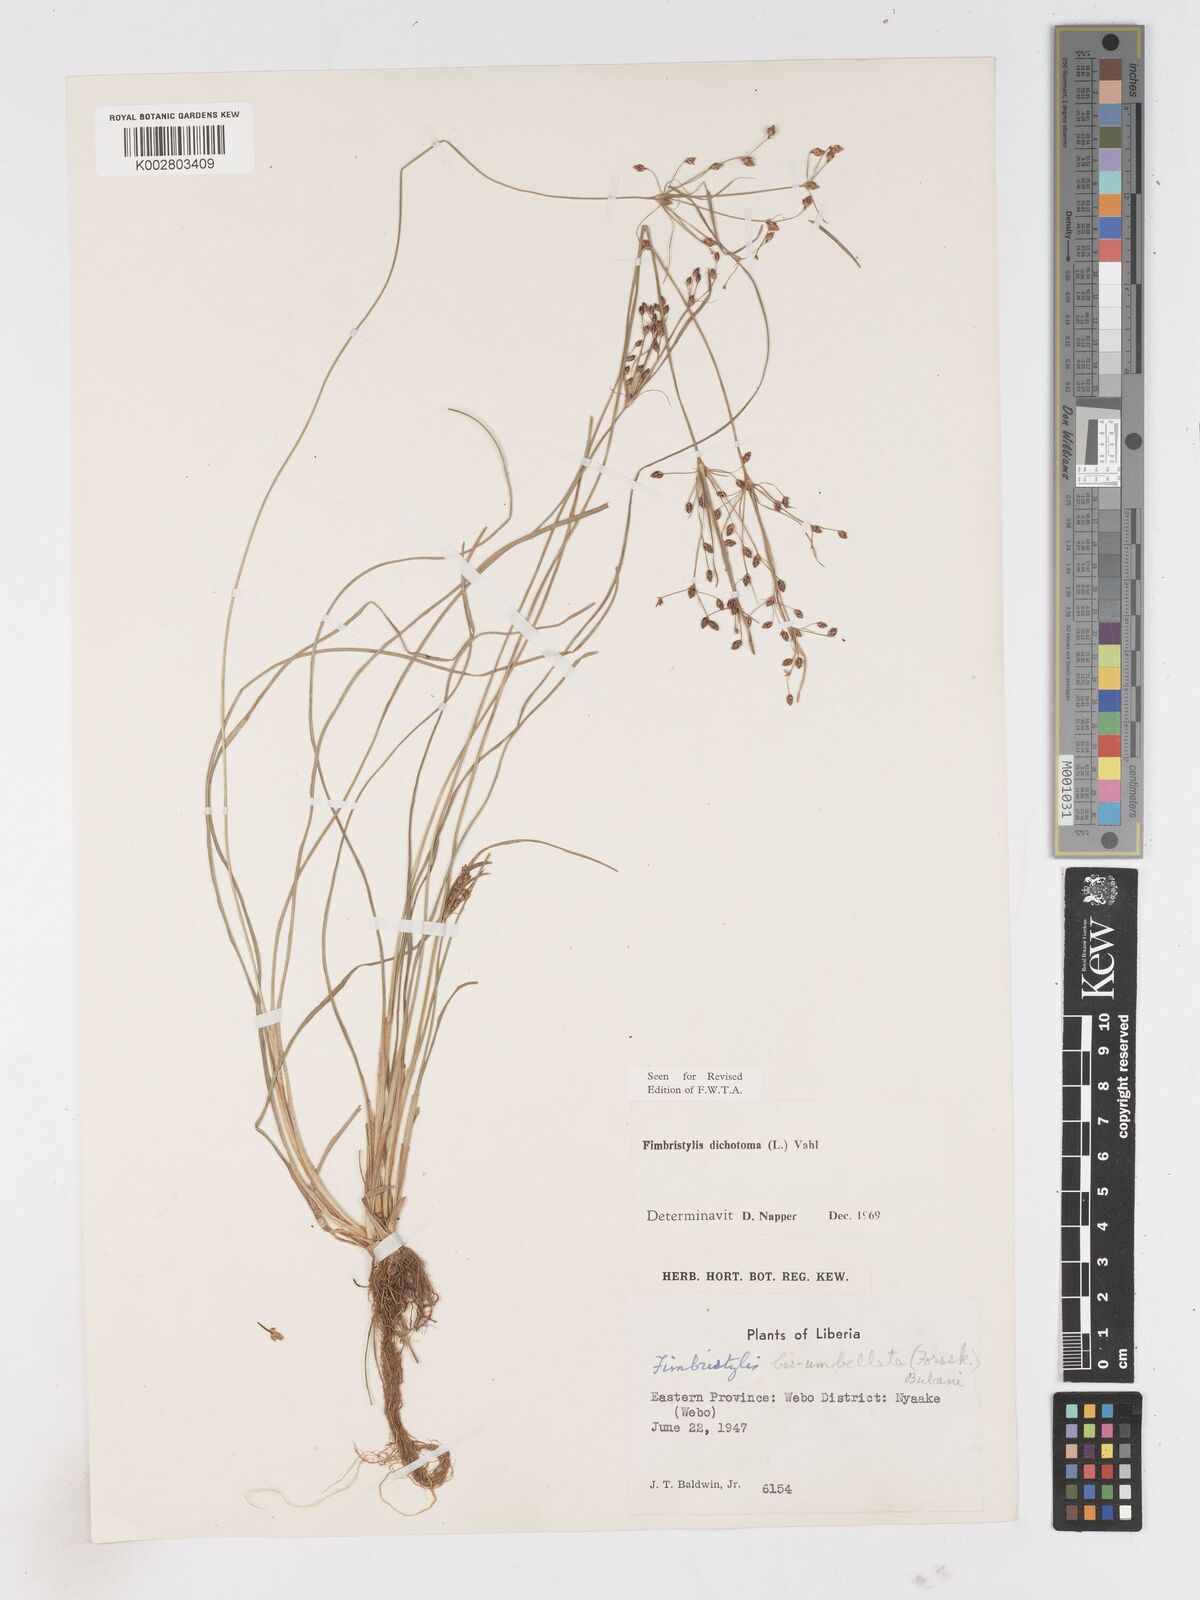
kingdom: Plantae
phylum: Tracheophyta
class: Liliopsida
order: Poales
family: Cyperaceae
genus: Fimbristylis
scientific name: Fimbristylis dichotoma
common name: Forked fimbry
